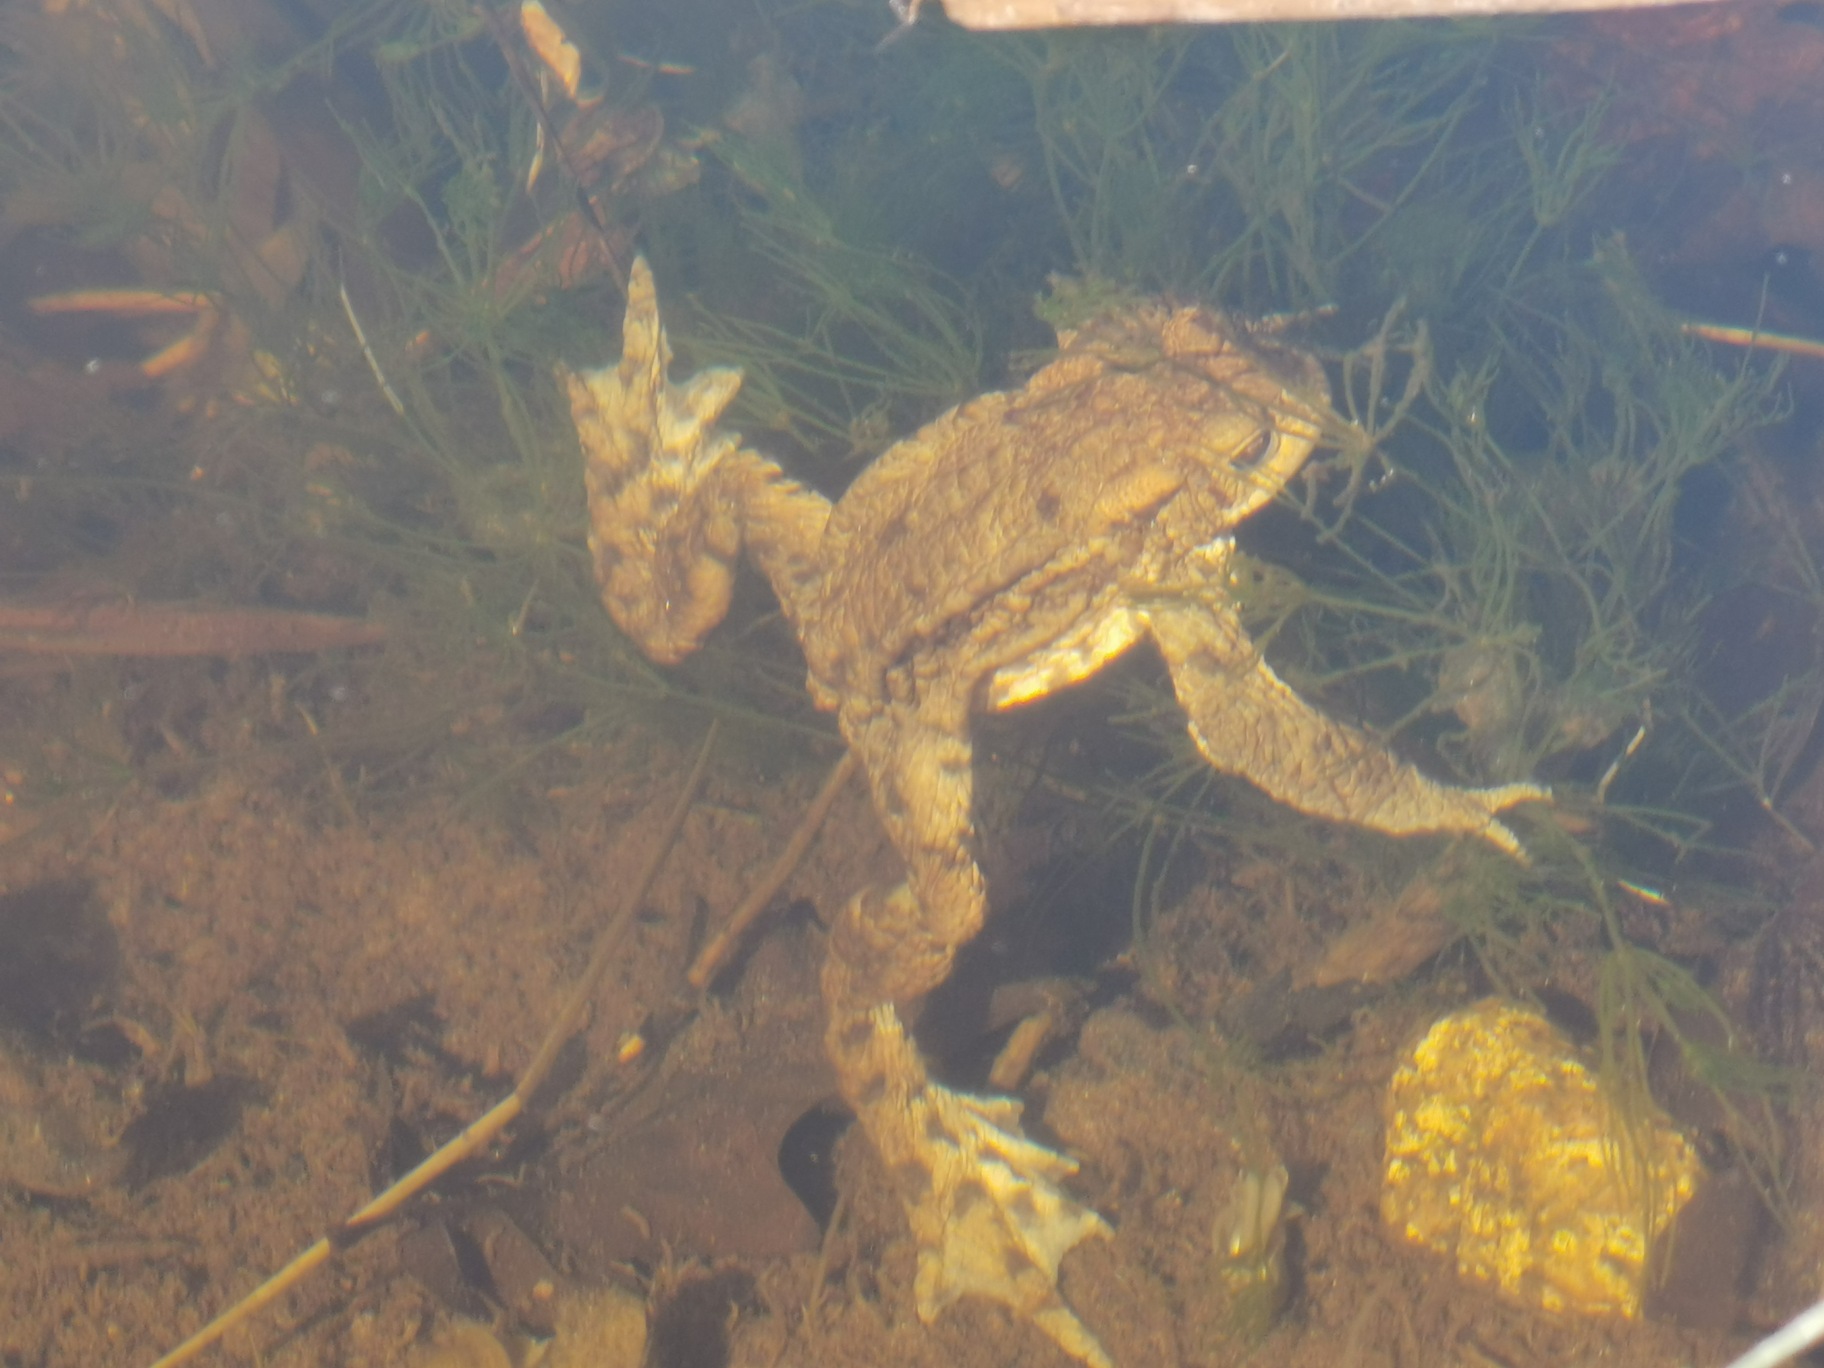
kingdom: Animalia
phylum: Chordata
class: Amphibia
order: Anura
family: Bufonidae
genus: Bufo
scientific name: Bufo bufo
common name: Skrubtudse
